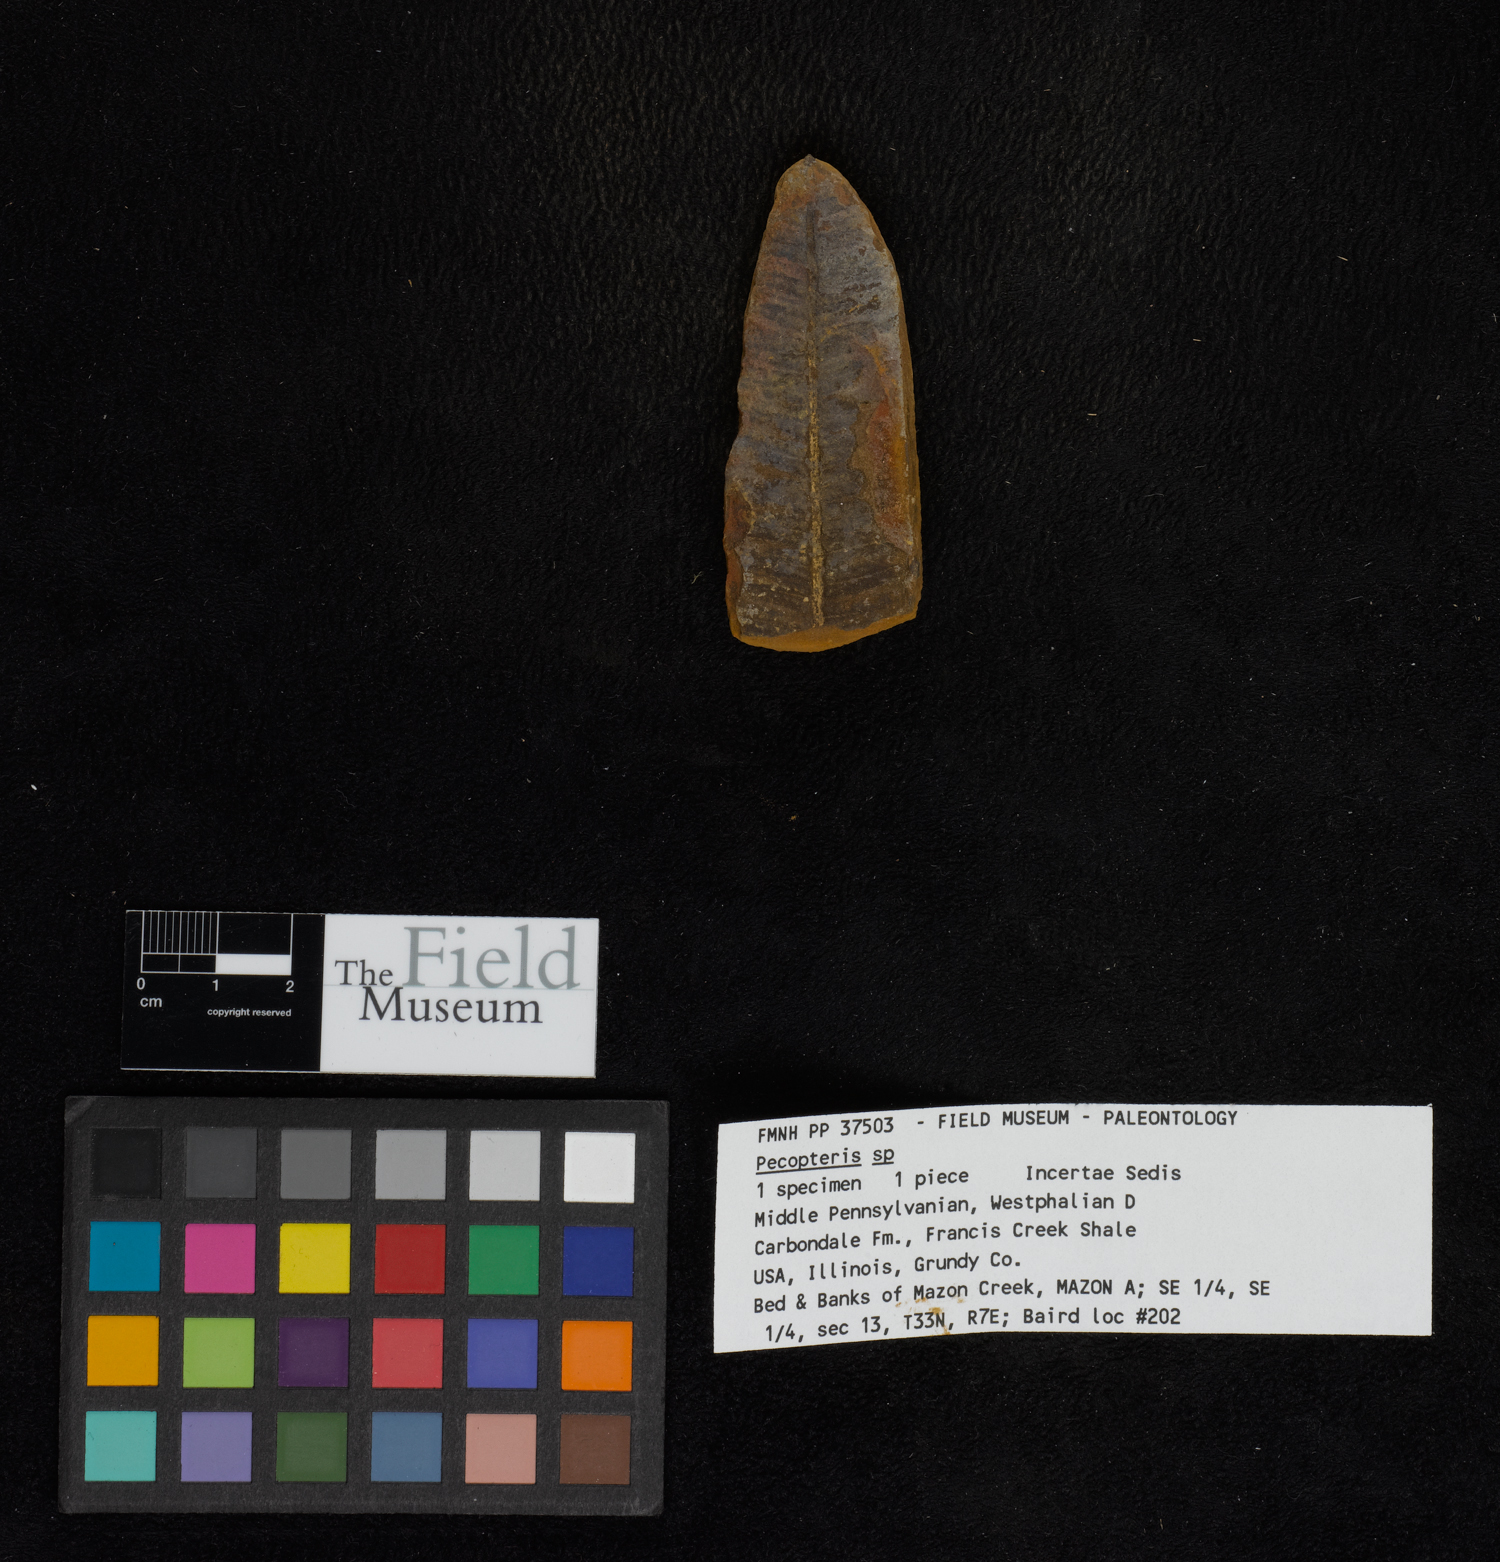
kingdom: Plantae
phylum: Tracheophyta
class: Polypodiopsida
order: Marattiales
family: Asterothecaceae
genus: Pecopteris
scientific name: Pecopteris
